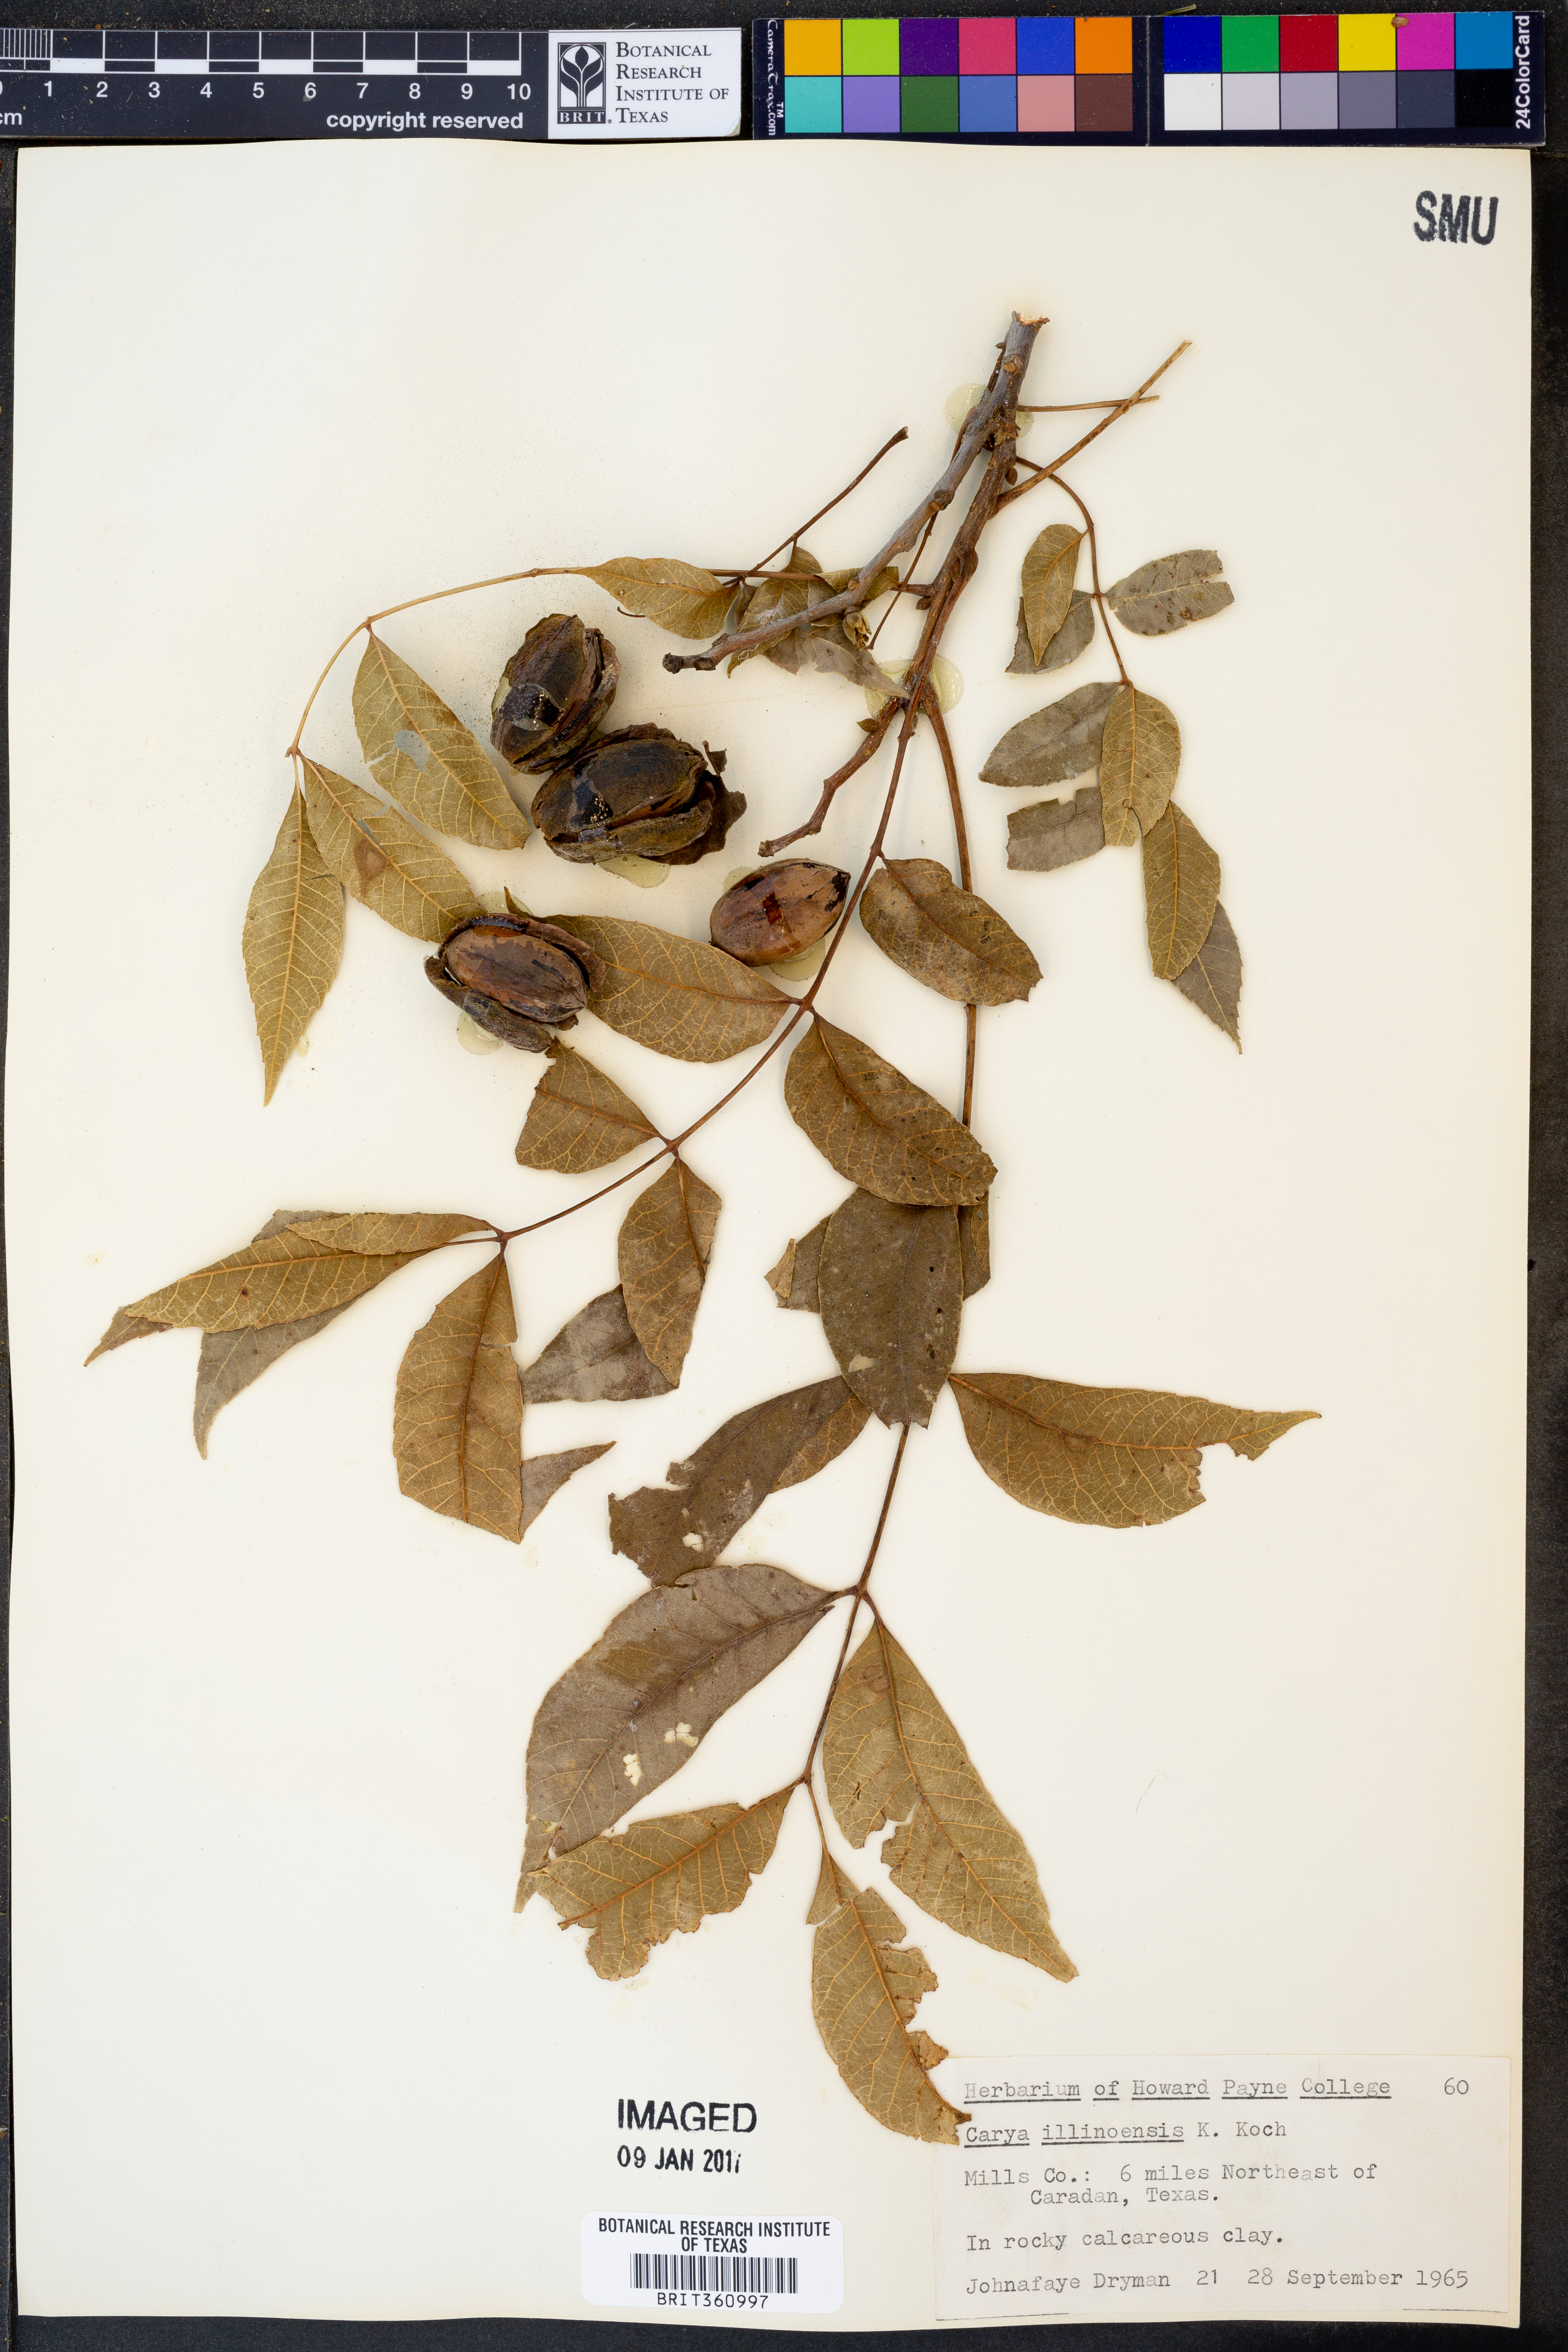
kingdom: Plantae
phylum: Tracheophyta
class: Magnoliopsida
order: Fagales
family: Juglandaceae
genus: Carya
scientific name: Carya illinoinensis
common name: Pecan
